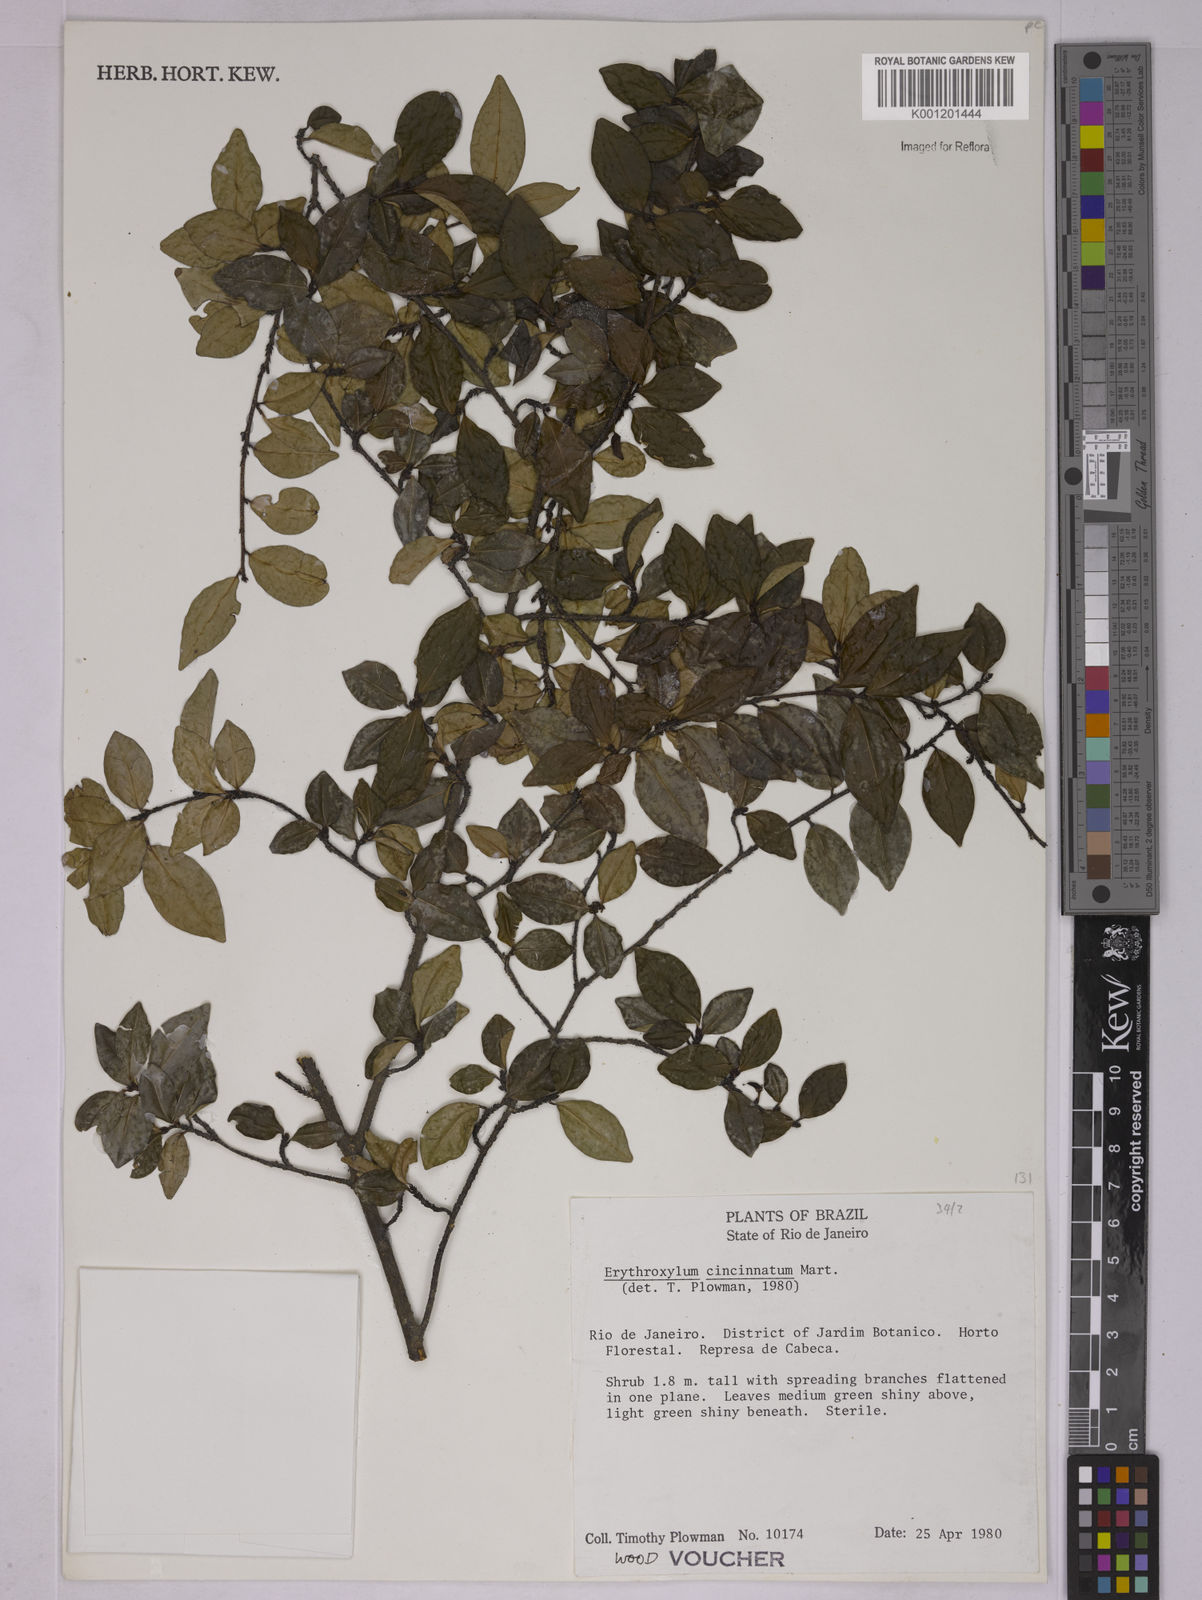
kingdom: Plantae
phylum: Tracheophyta
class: Magnoliopsida
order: Malpighiales
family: Erythroxylaceae
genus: Erythroxylum
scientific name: Erythroxylum cincinnatum
